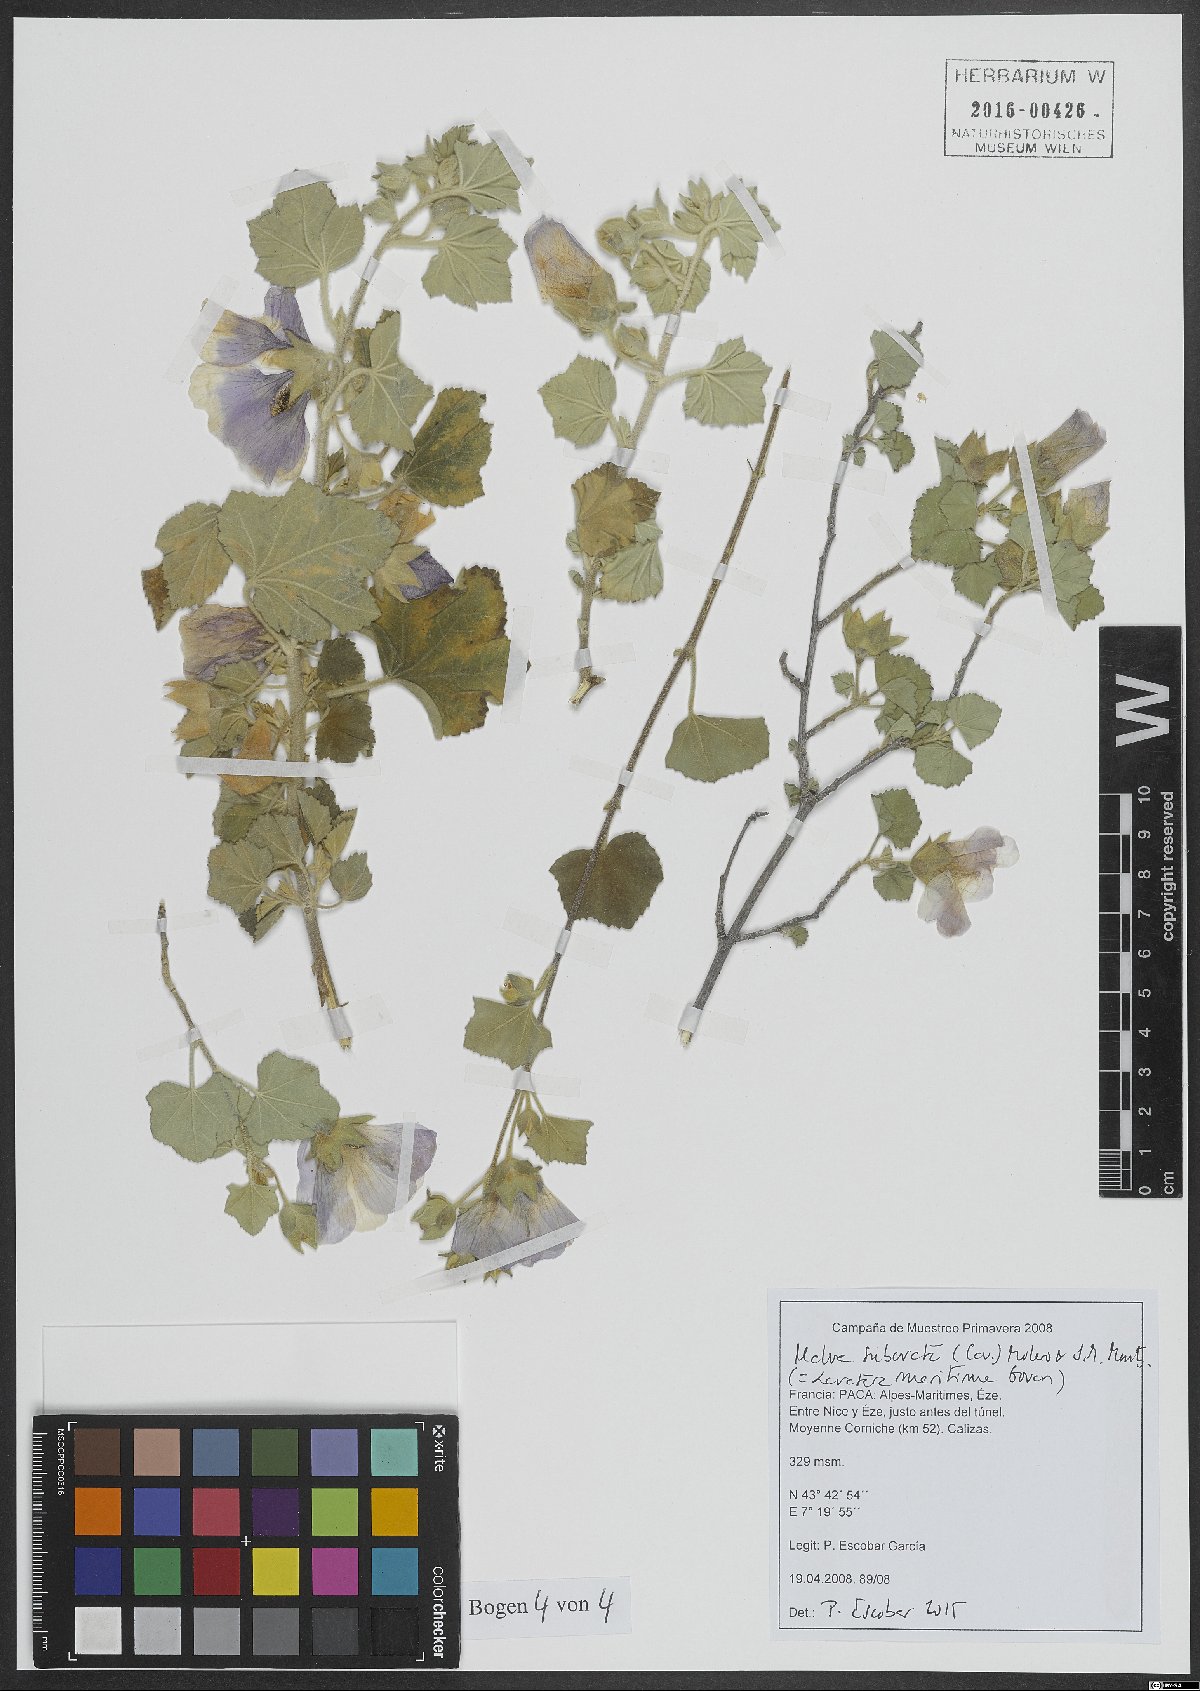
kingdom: Plantae
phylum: Tracheophyta
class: Magnoliopsida
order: Malvales
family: Malvaceae
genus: Malva
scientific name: Malva subovata
